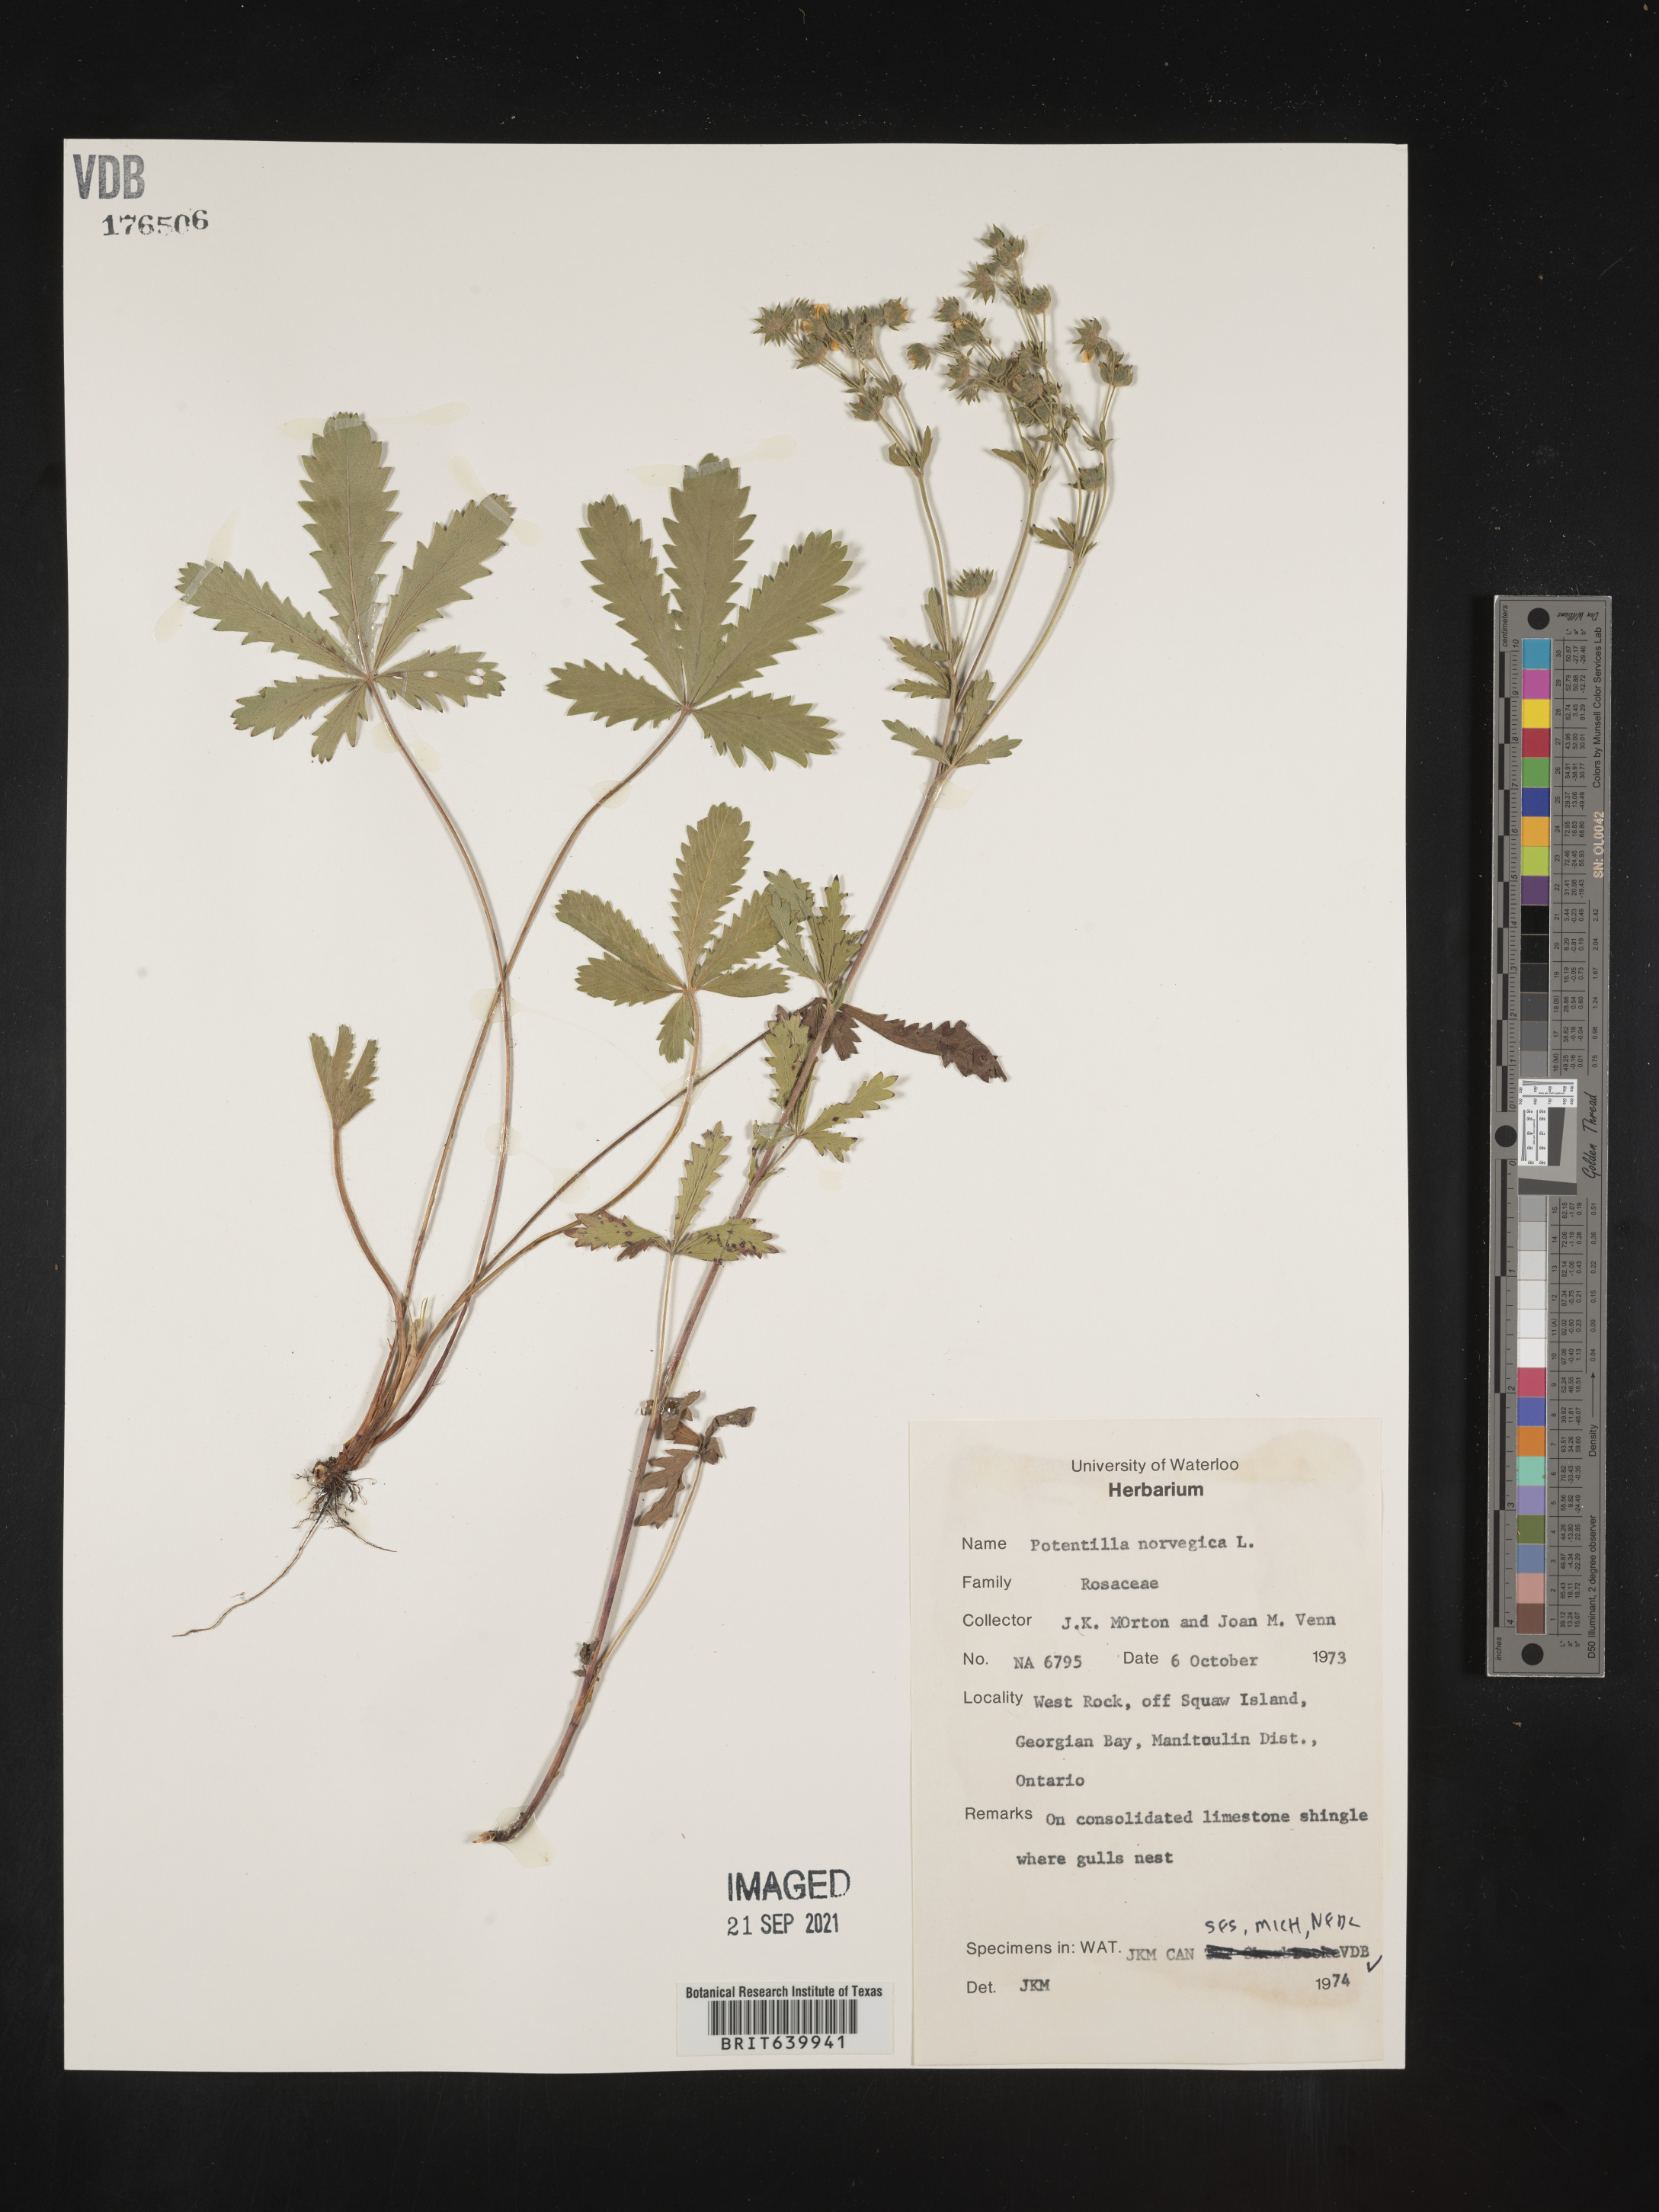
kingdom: Plantae
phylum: Tracheophyta
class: Magnoliopsida
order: Rosales
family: Rosaceae
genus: Potentilla
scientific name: Potentilla
